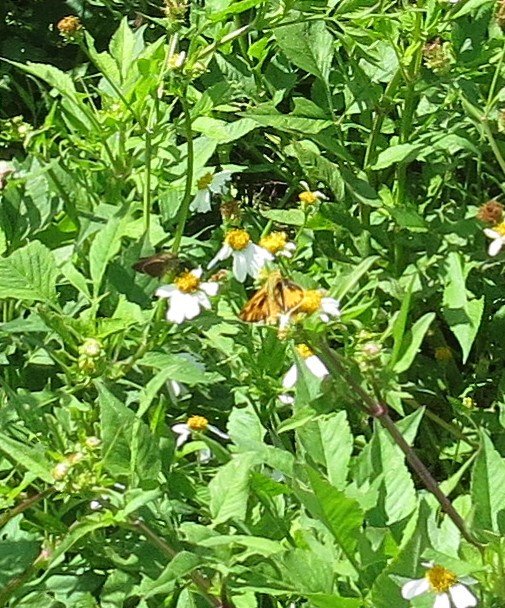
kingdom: Animalia
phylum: Arthropoda
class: Insecta
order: Lepidoptera
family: Hesperiidae
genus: Hylephila
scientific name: Hylephila phyleus
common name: Fiery Skipper
